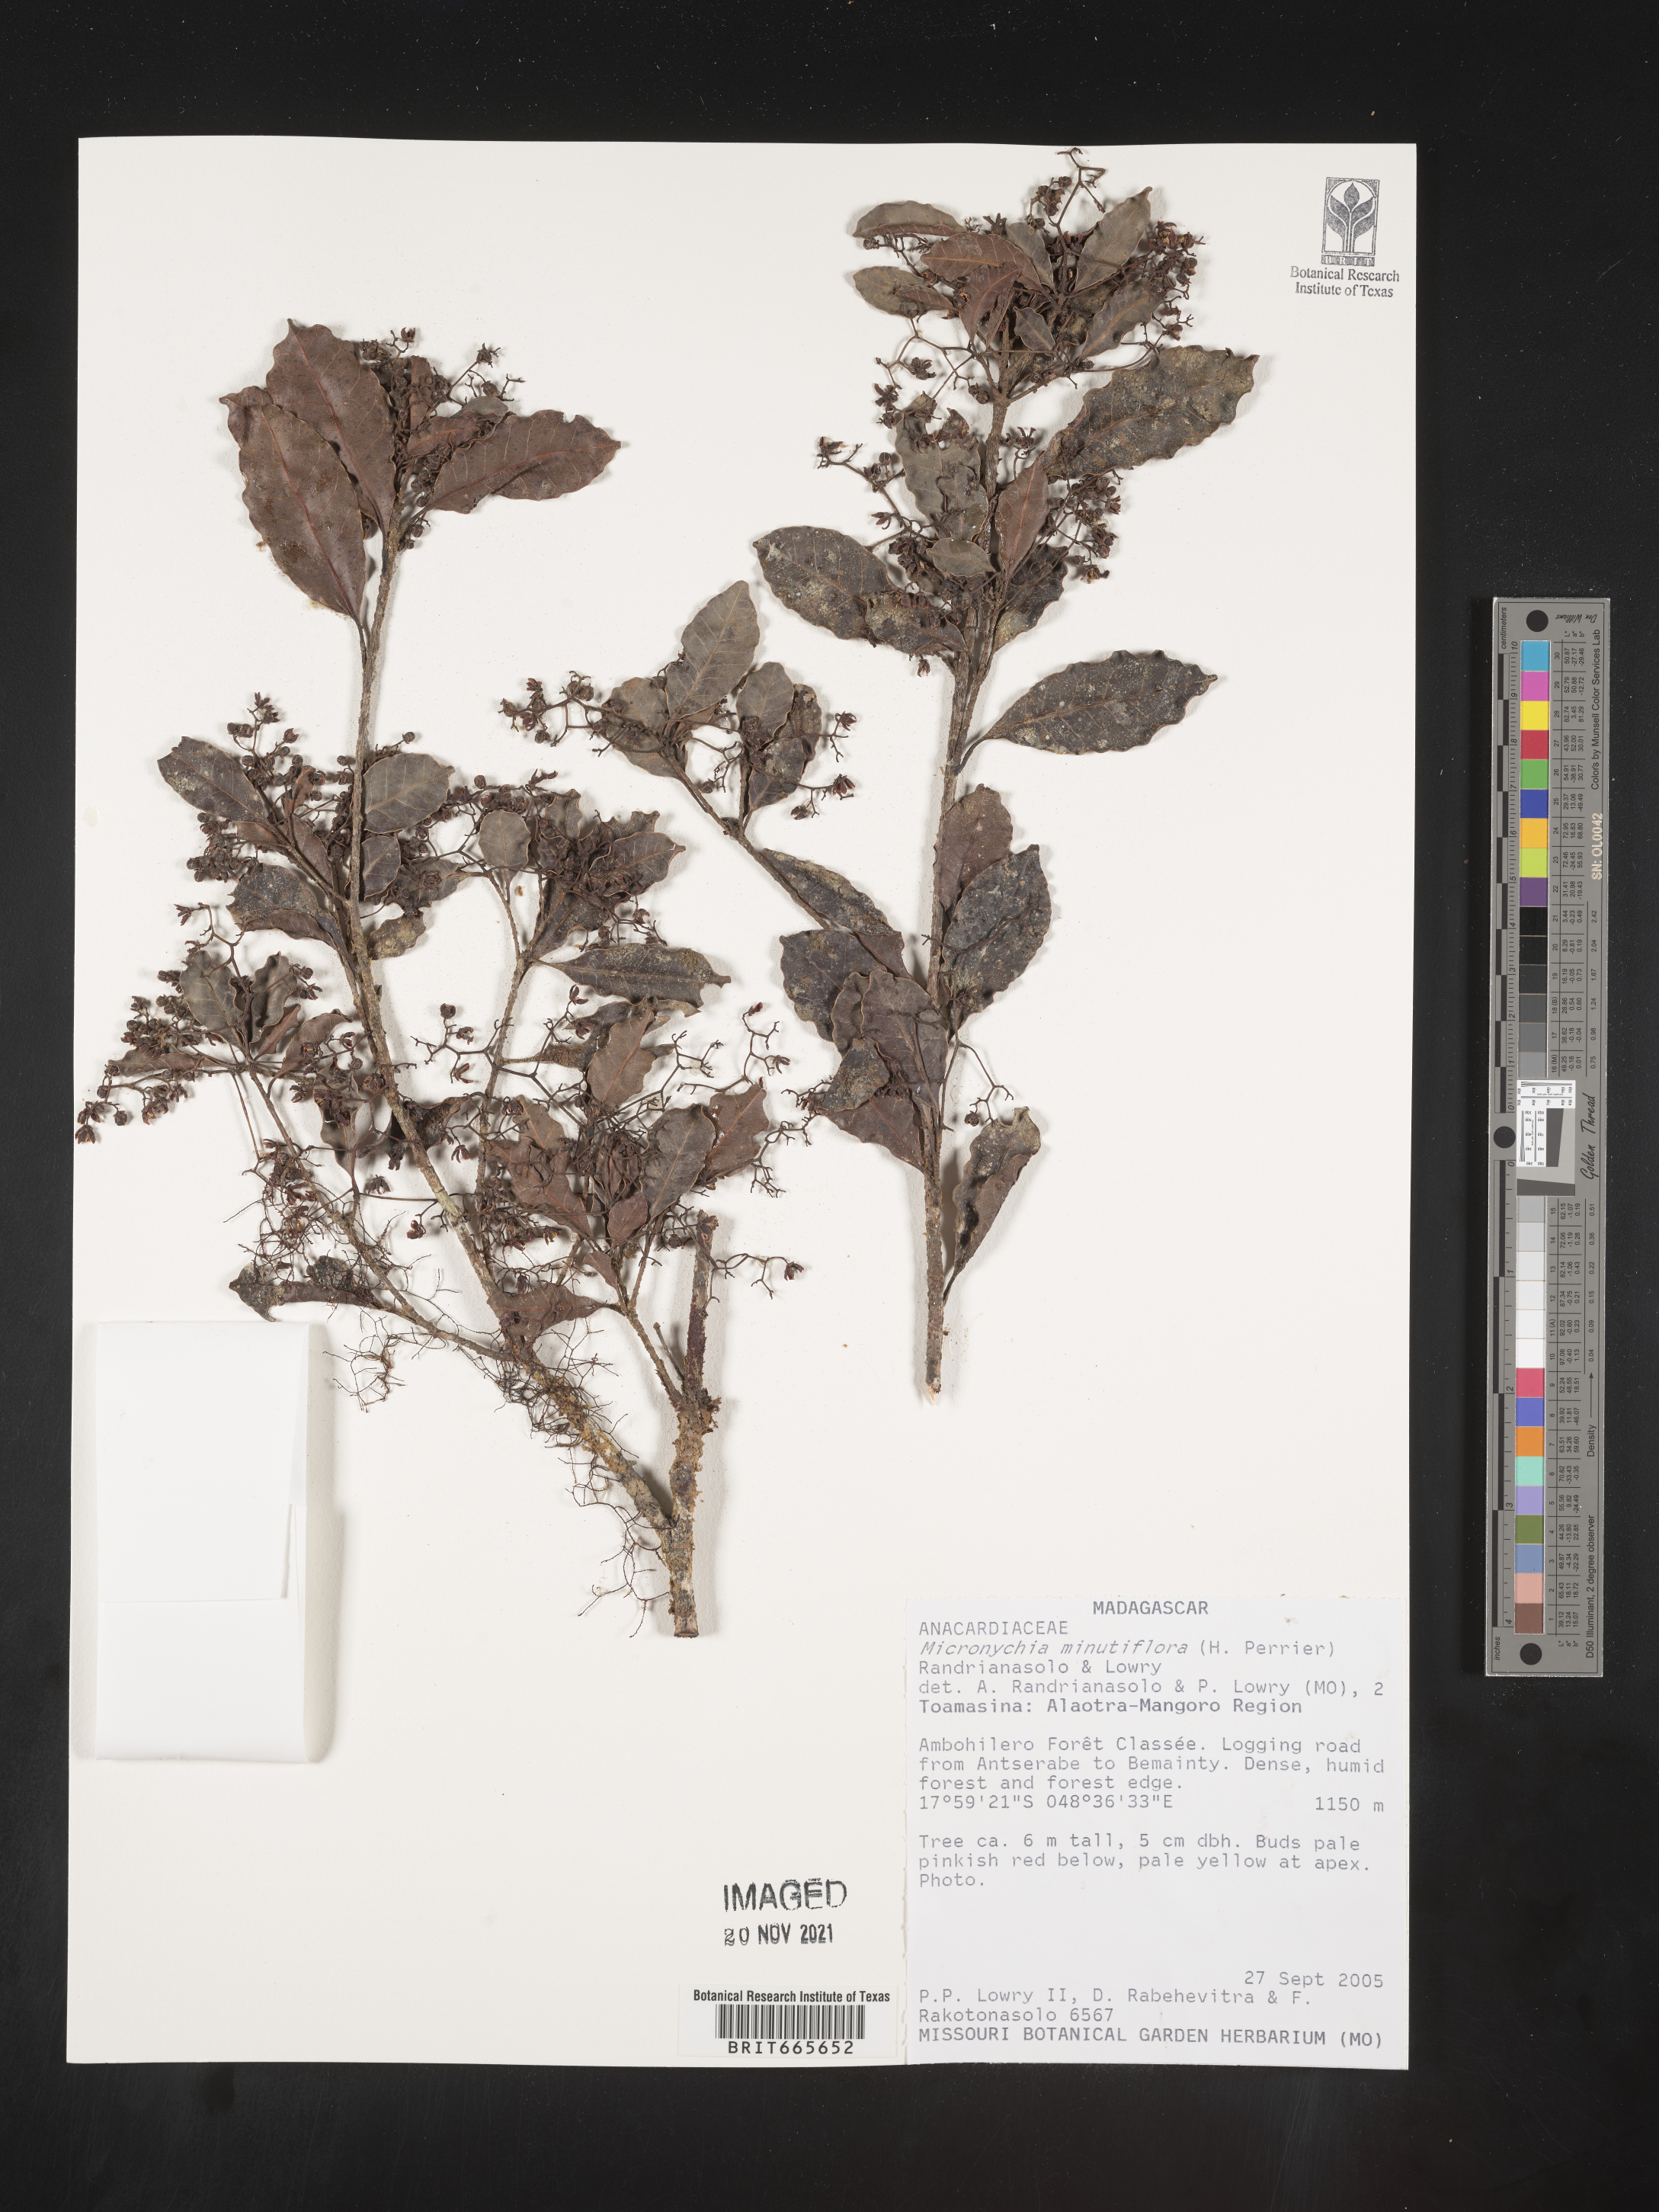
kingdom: Plantae
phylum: Tracheophyta
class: Magnoliopsida
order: Sapindales
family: Anacardiaceae
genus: Micronychia
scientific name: Micronychia
